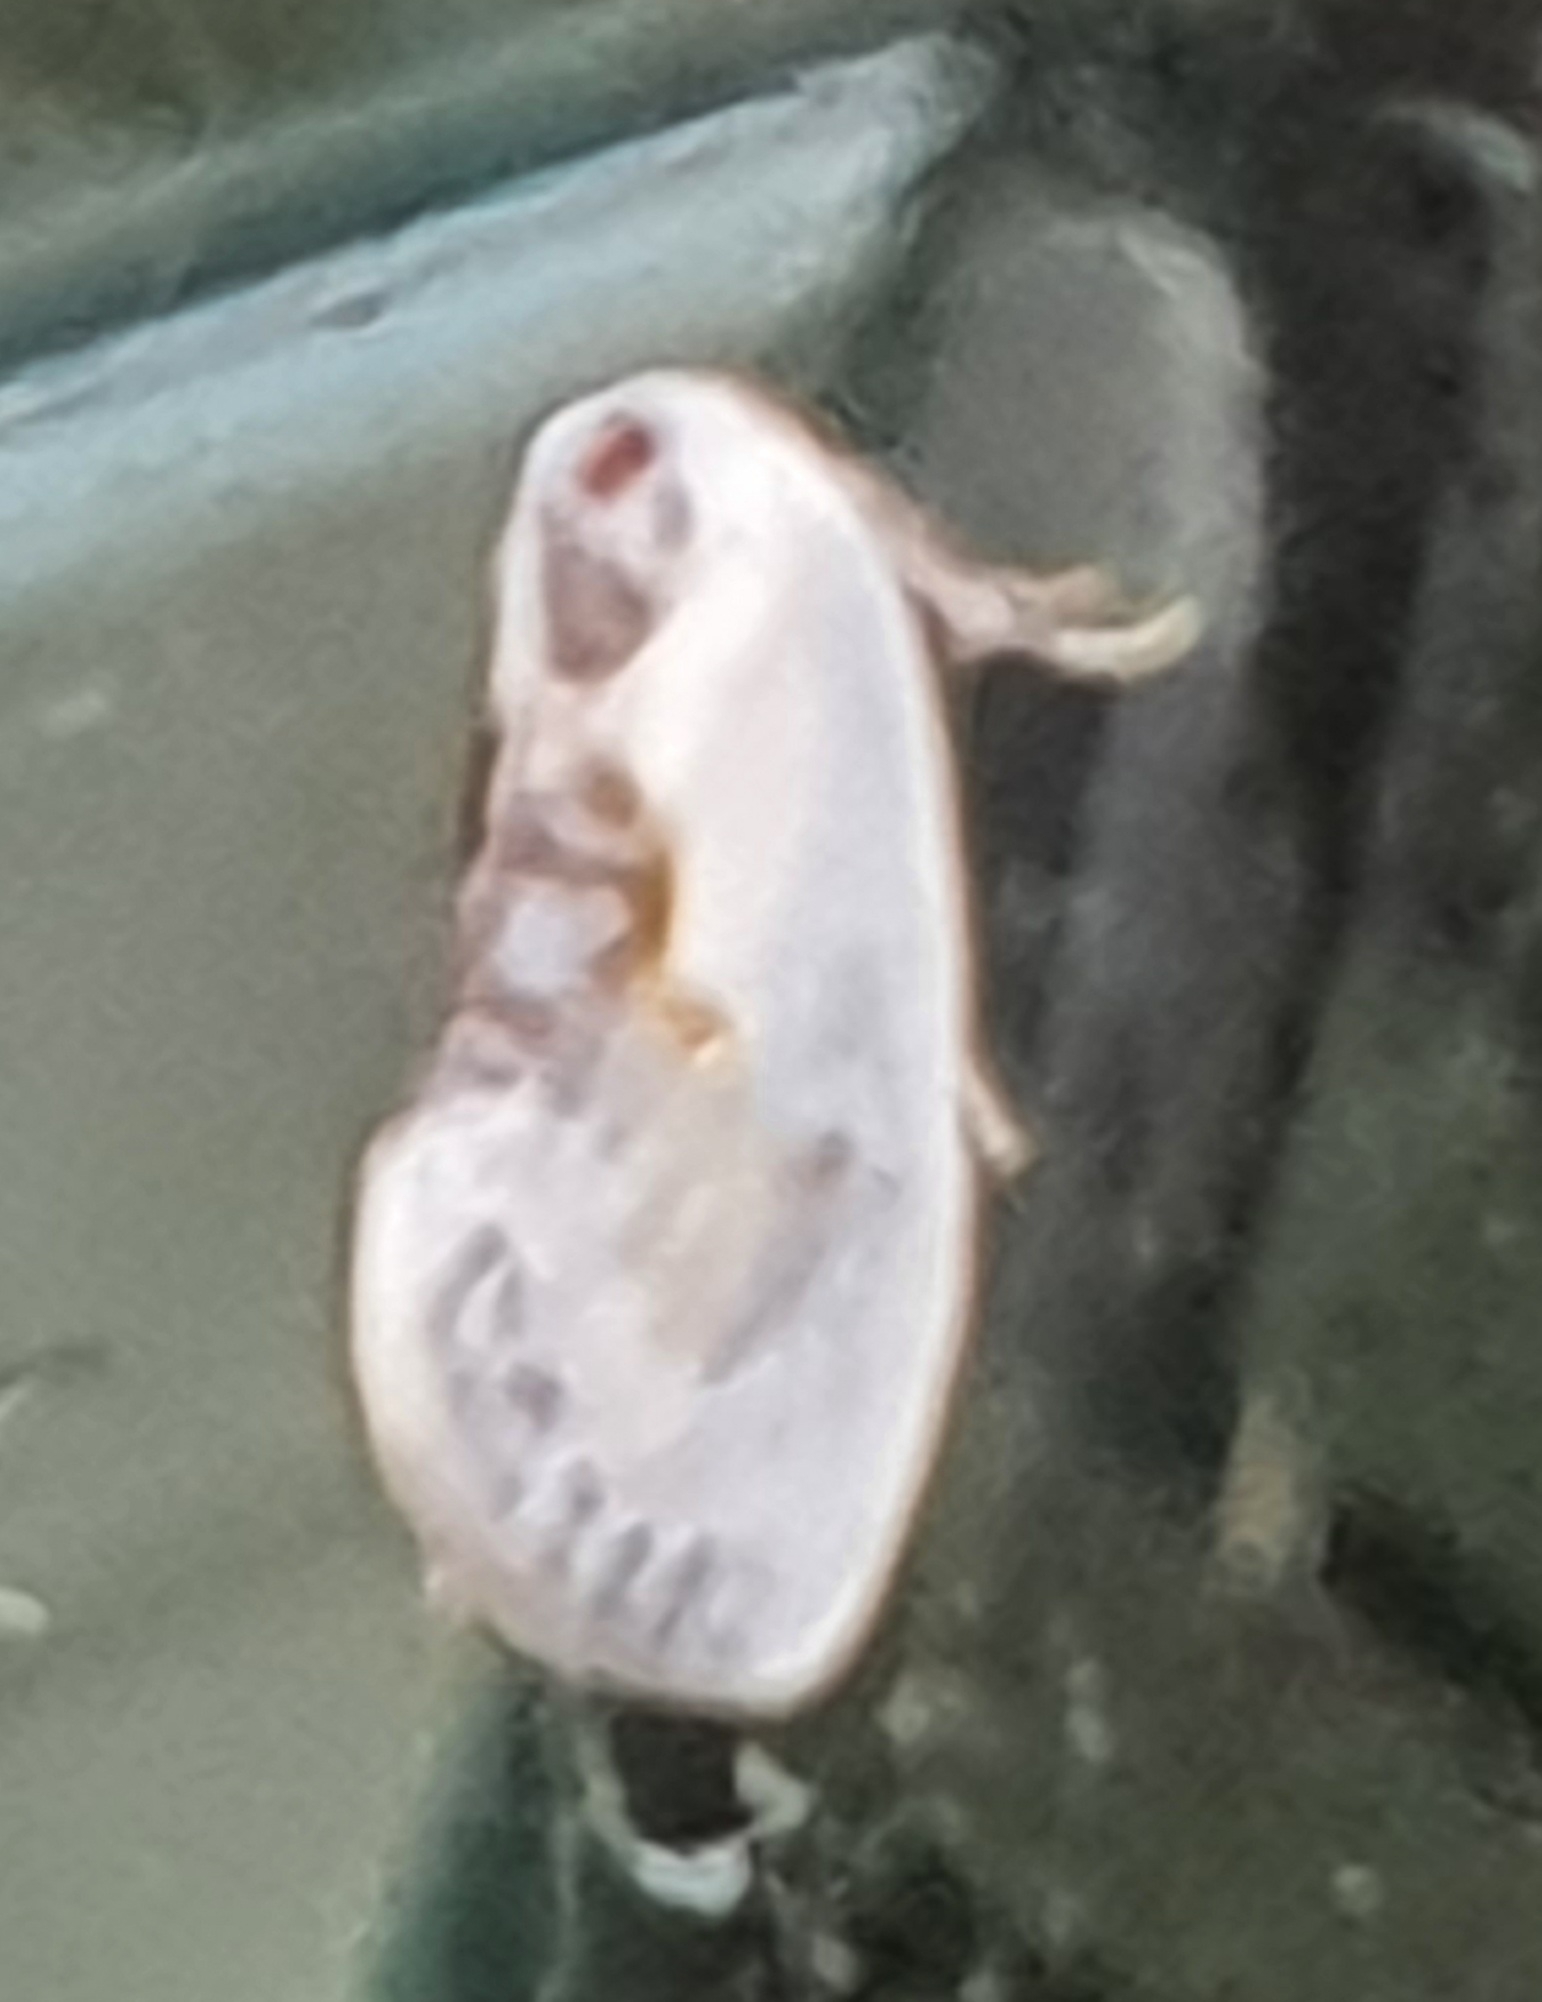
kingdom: Animalia
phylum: Arthropoda
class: Insecta
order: Lepidoptera
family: Drepanidae
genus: Cilix
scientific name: Cilix glaucata
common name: Silkevinge
